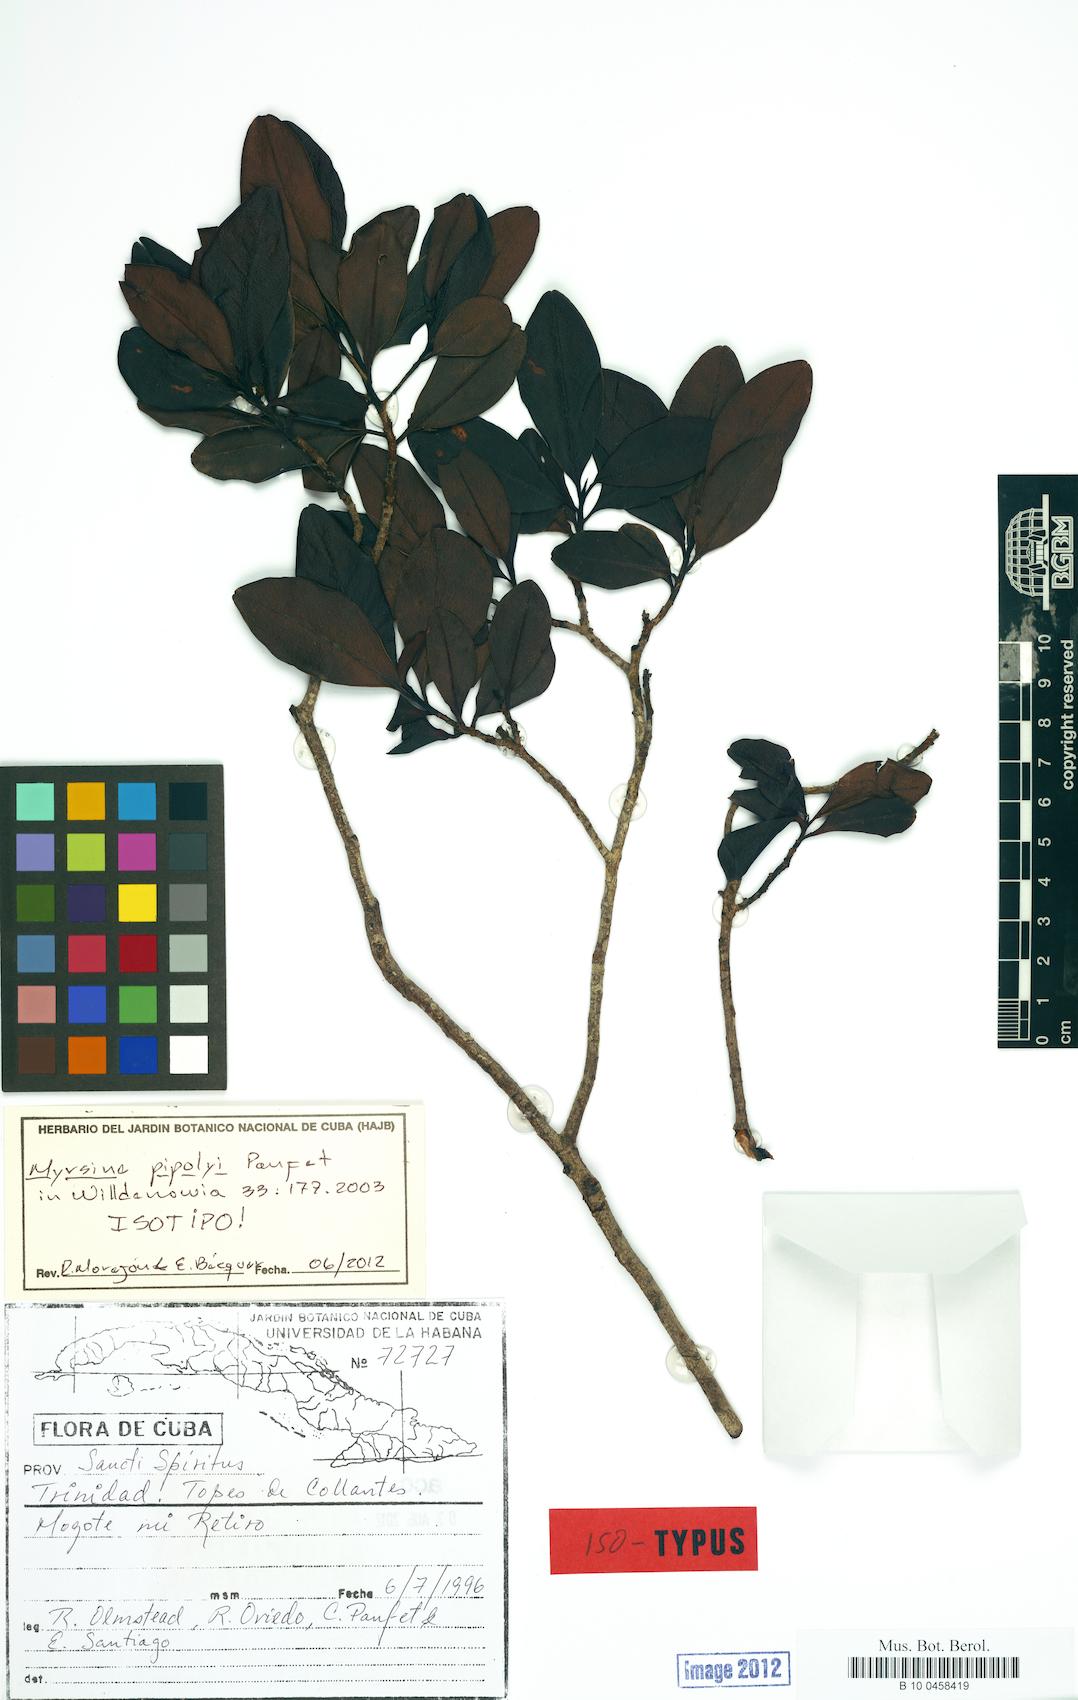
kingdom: Plantae
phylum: Tracheophyta
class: Magnoliopsida
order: Ericales
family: Primulaceae
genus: Myrsine
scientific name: Myrsine pipolyi
